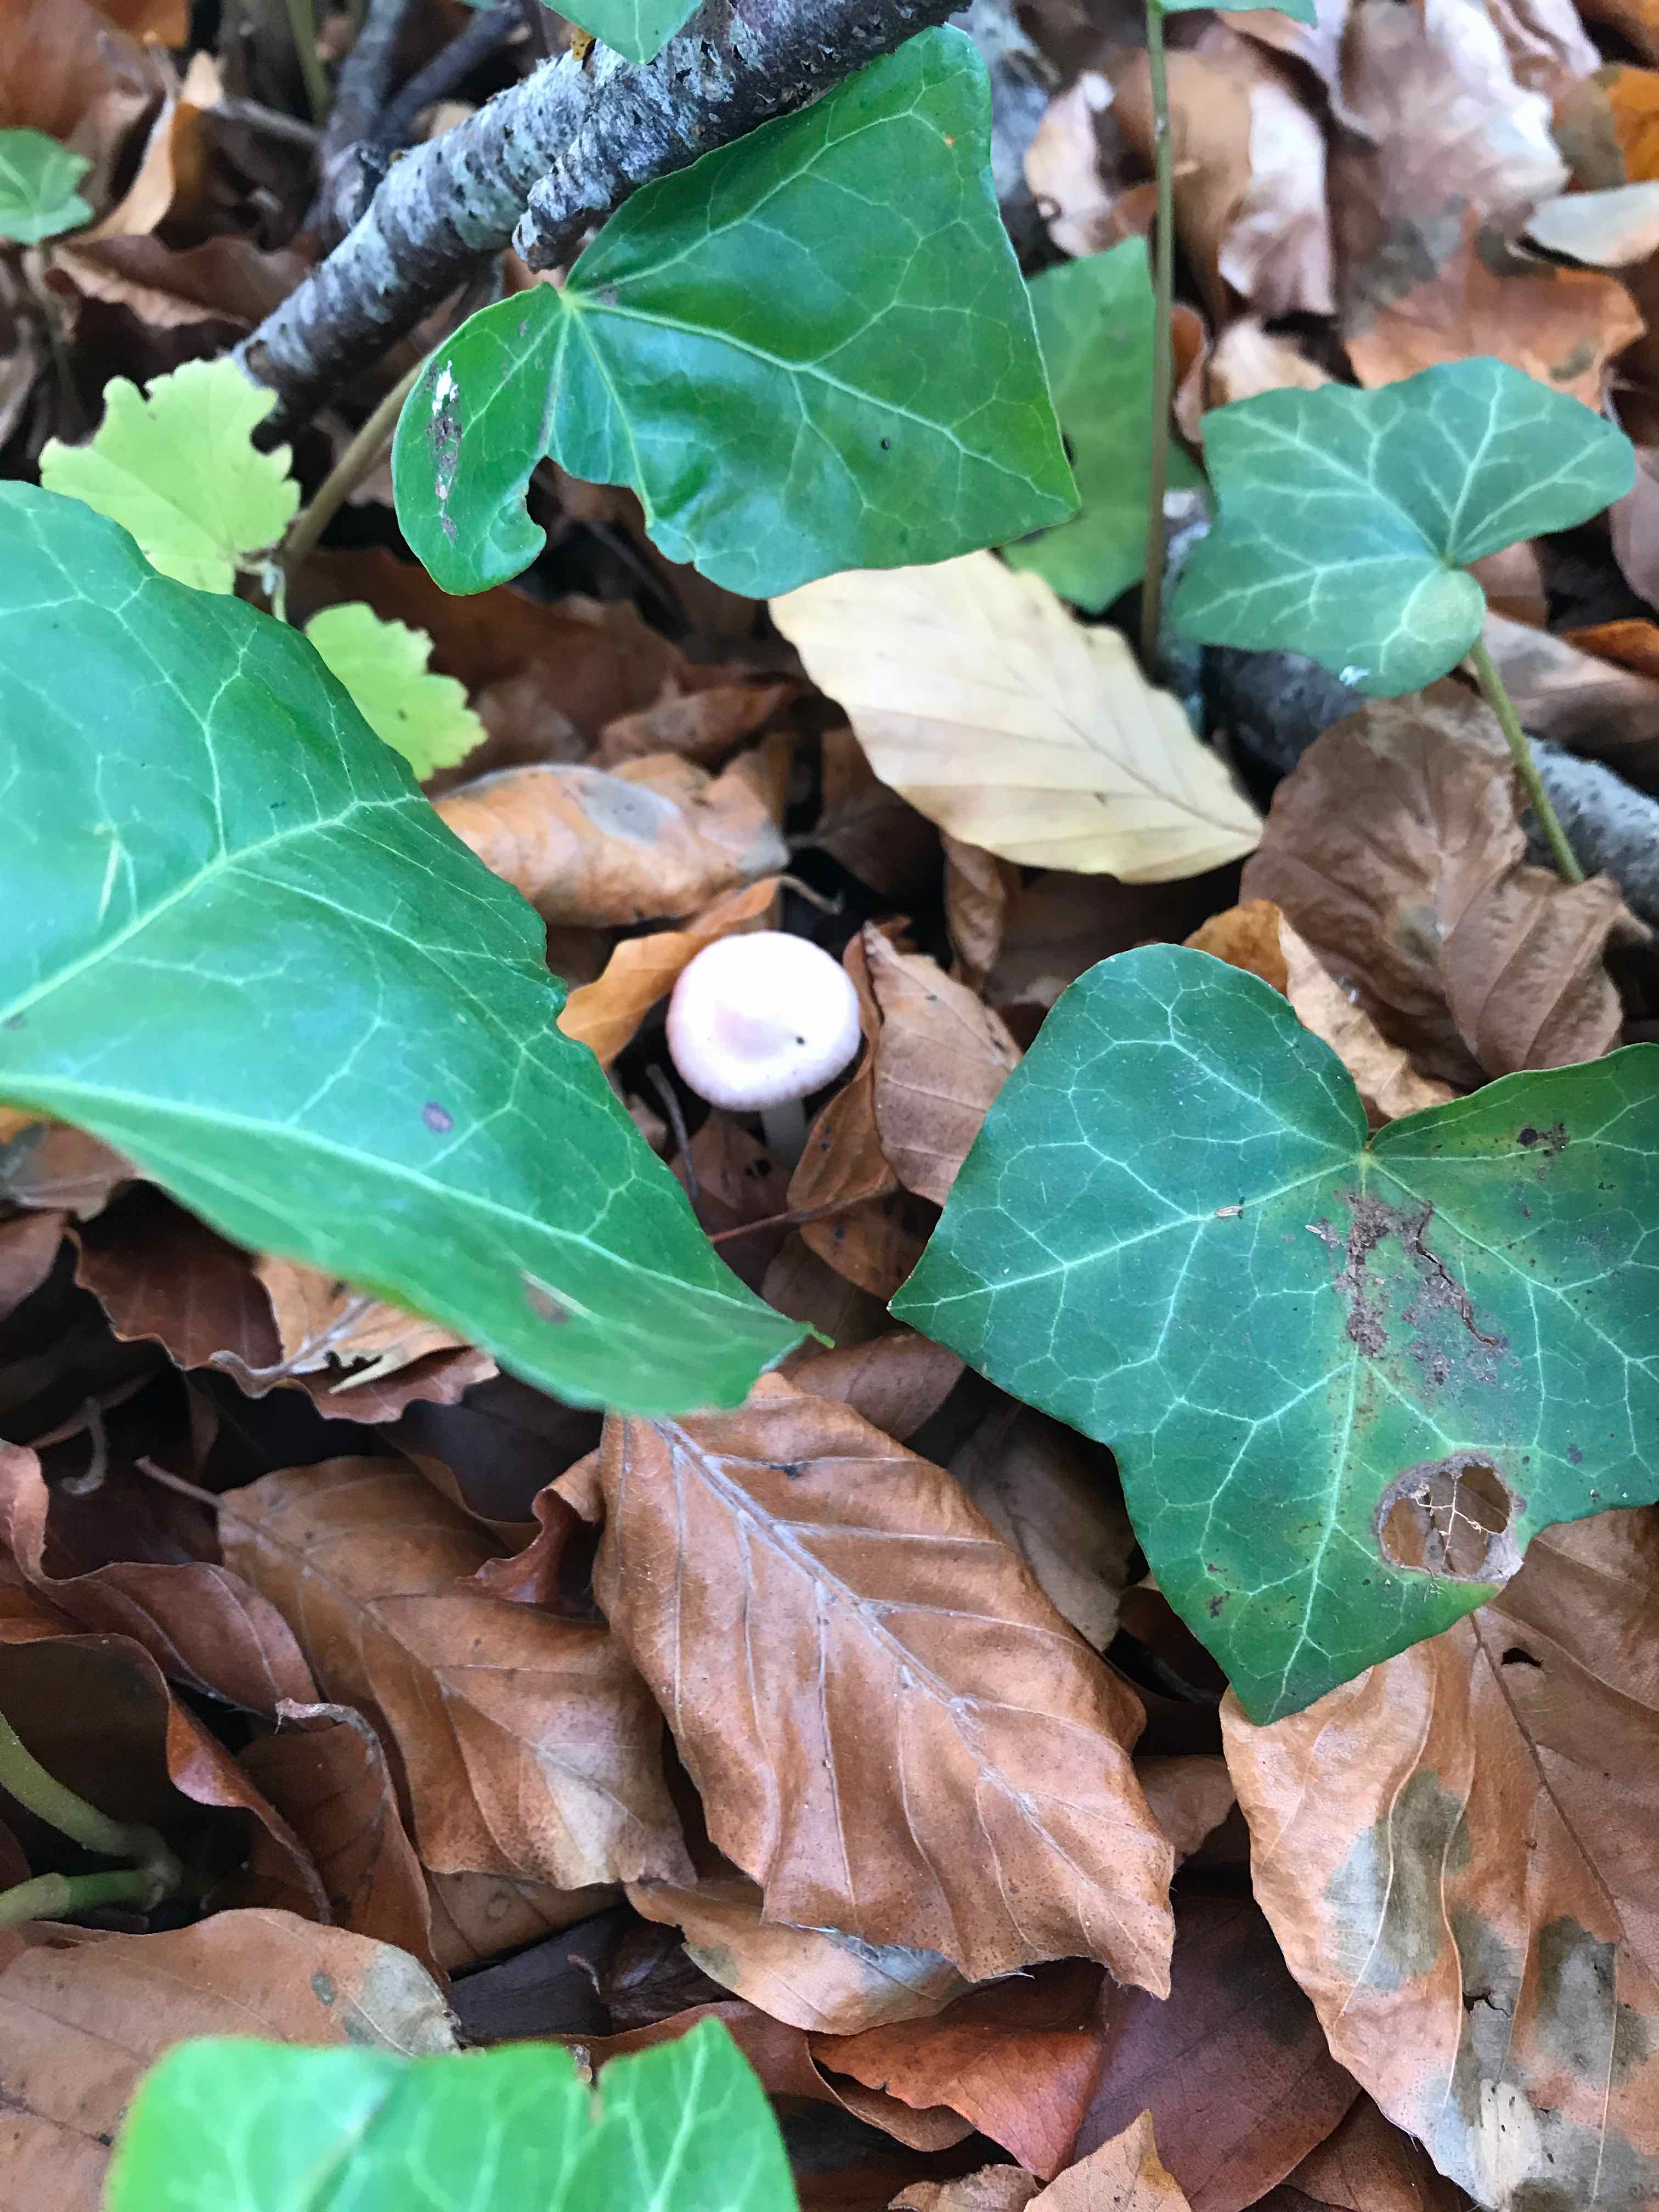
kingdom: Fungi
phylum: Basidiomycota
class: Agaricomycetes
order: Agaricales
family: Mycenaceae
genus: Mycena
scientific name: Mycena rosea
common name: rosa huesvamp
